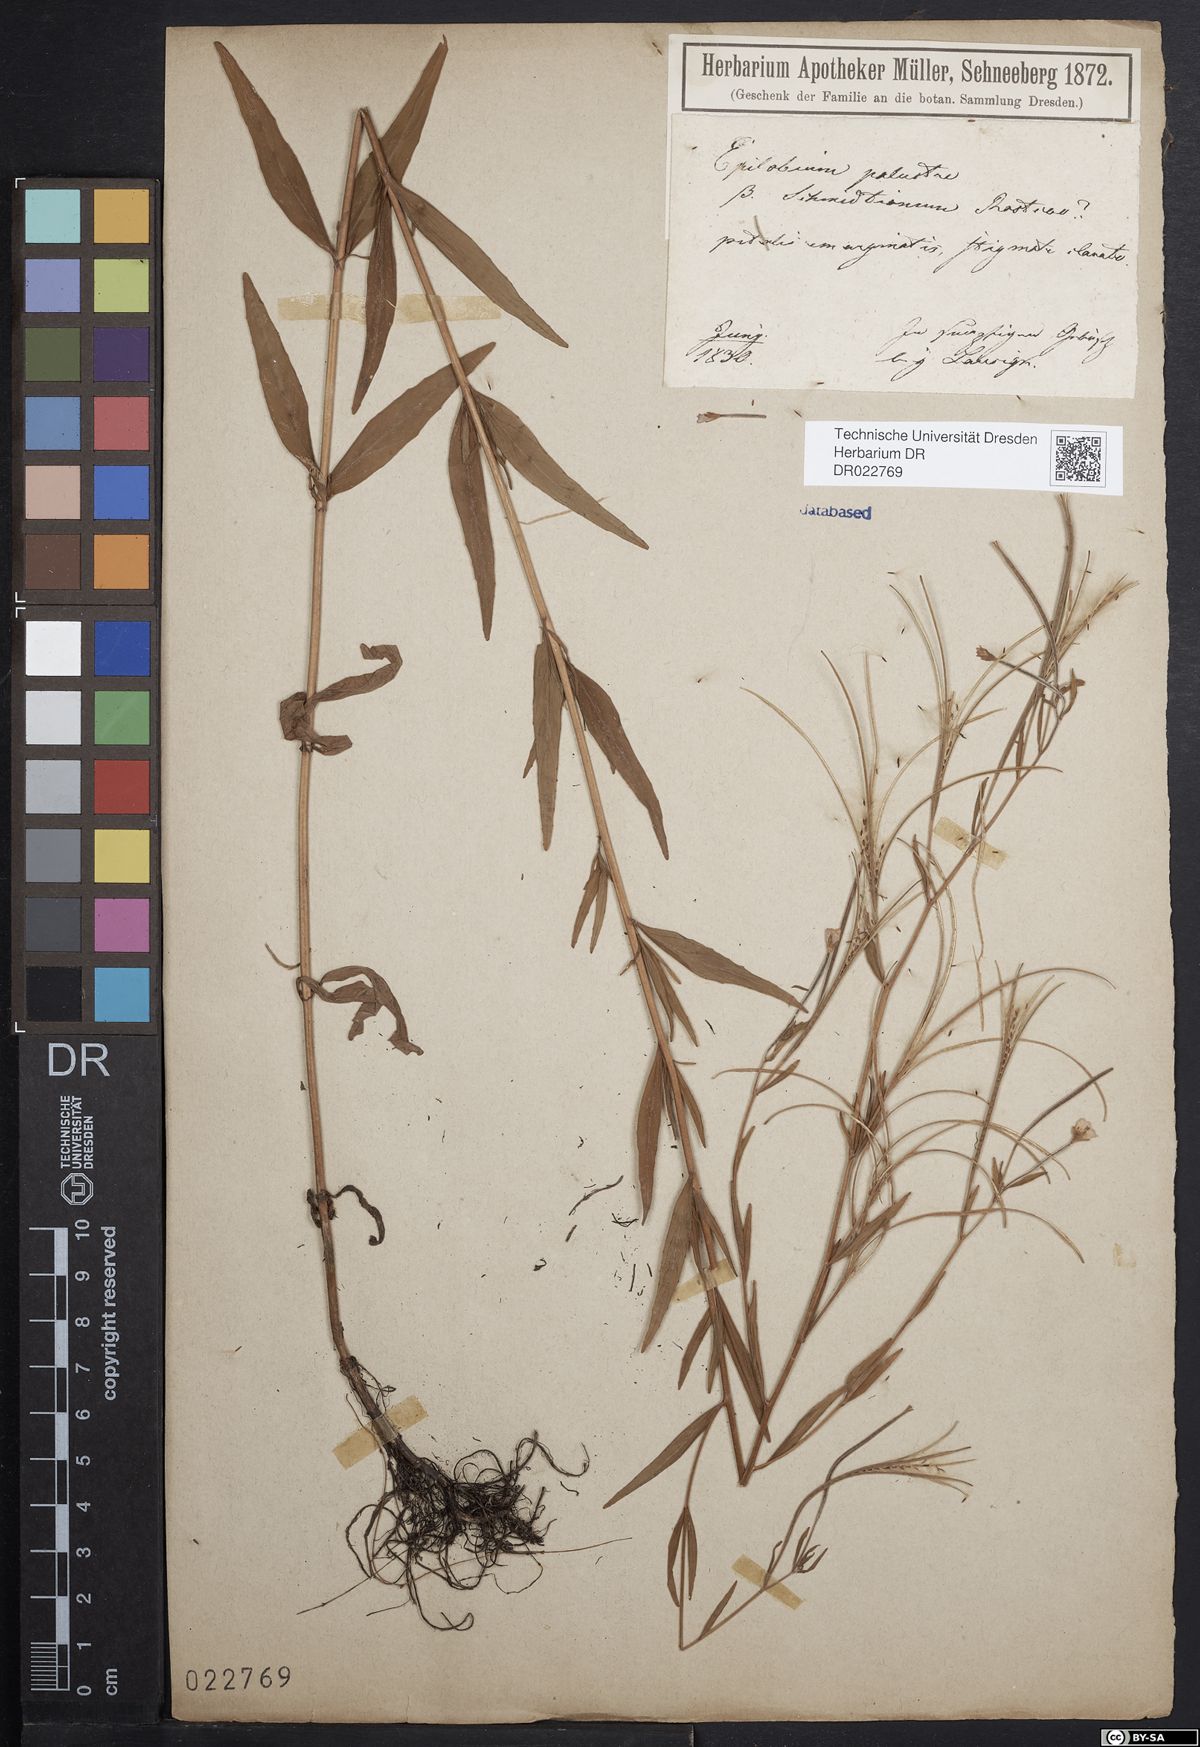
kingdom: Plantae
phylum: Tracheophyta
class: Magnoliopsida
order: Myrtales
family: Onagraceae
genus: Epilobium
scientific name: Epilobium palustre
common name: Marsh willowherb
